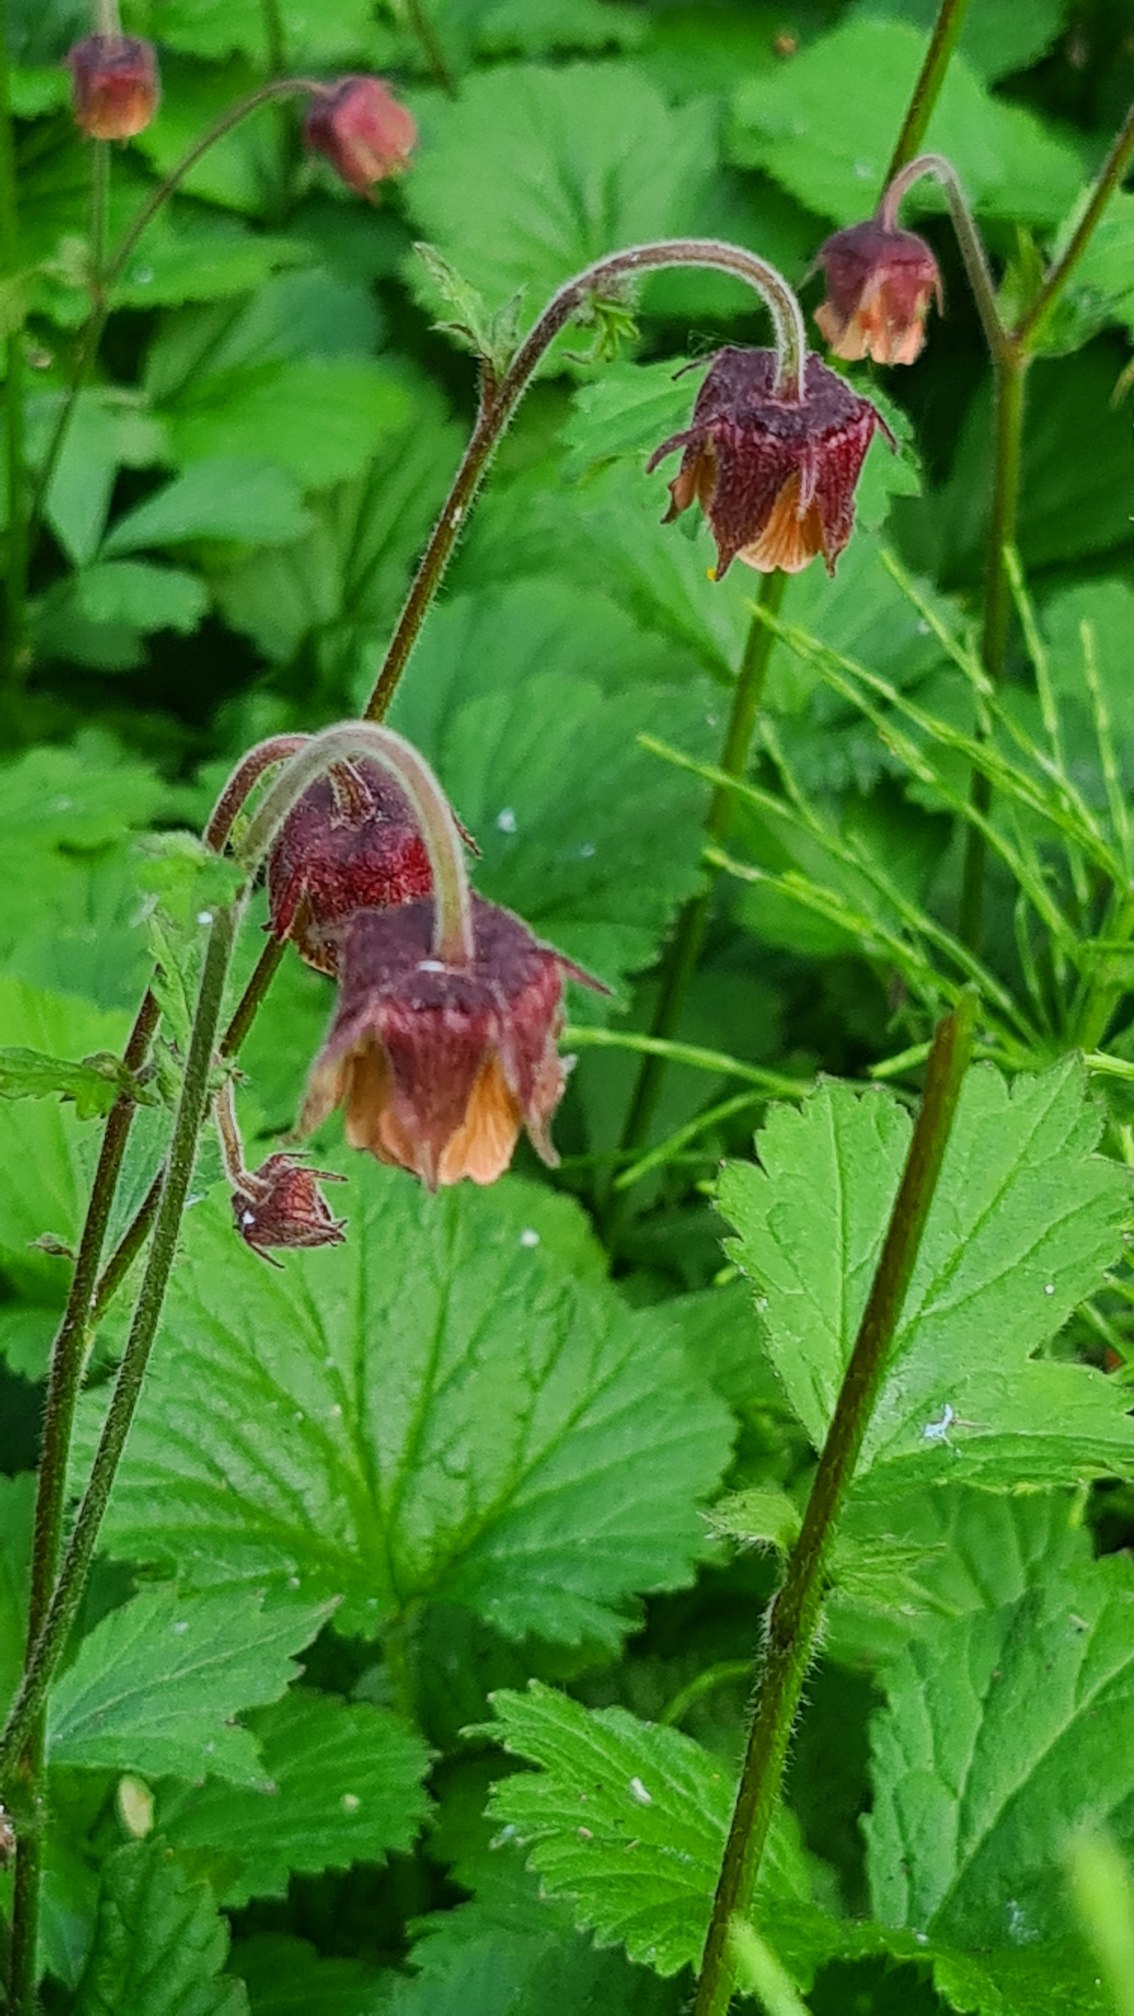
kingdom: Plantae
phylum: Tracheophyta
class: Magnoliopsida
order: Rosales
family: Rosaceae
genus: Geum
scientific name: Geum rivale
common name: Eng-nellikerod
